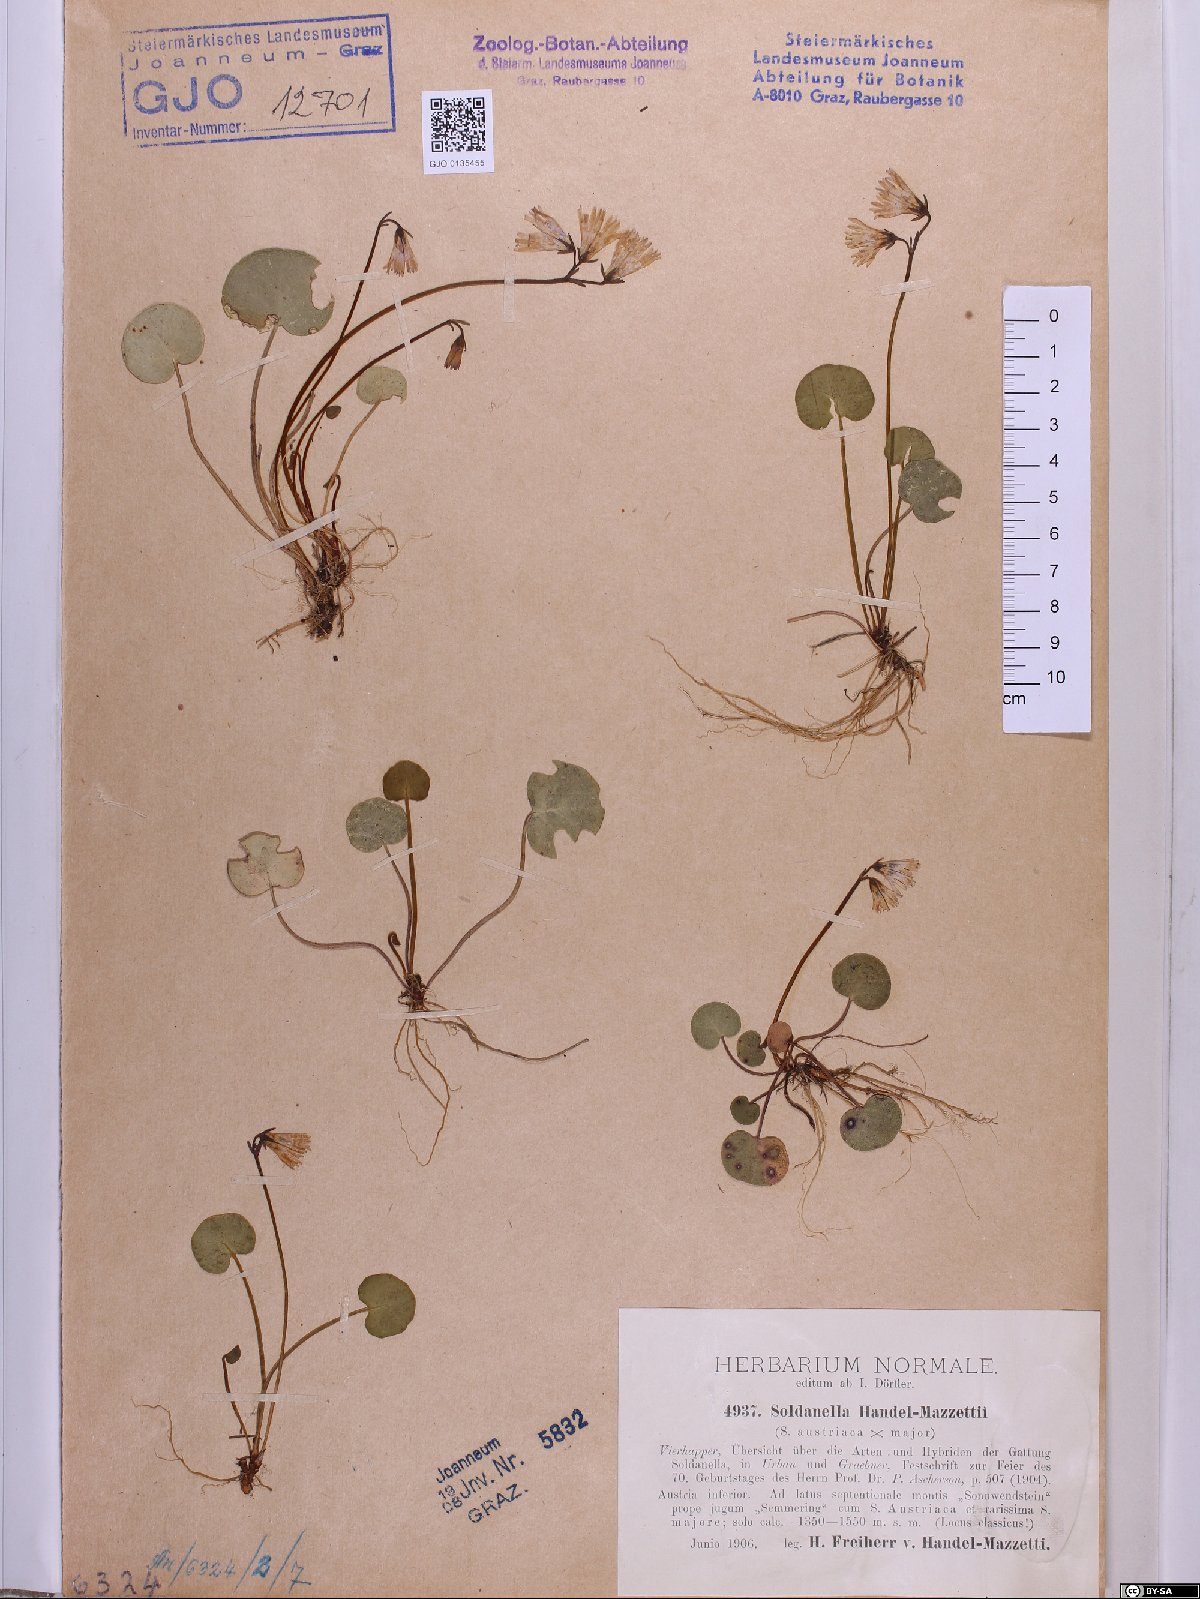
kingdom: Plantae
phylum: Tracheophyta
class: Magnoliopsida
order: Ericales
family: Primulaceae
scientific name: Primulaceae
